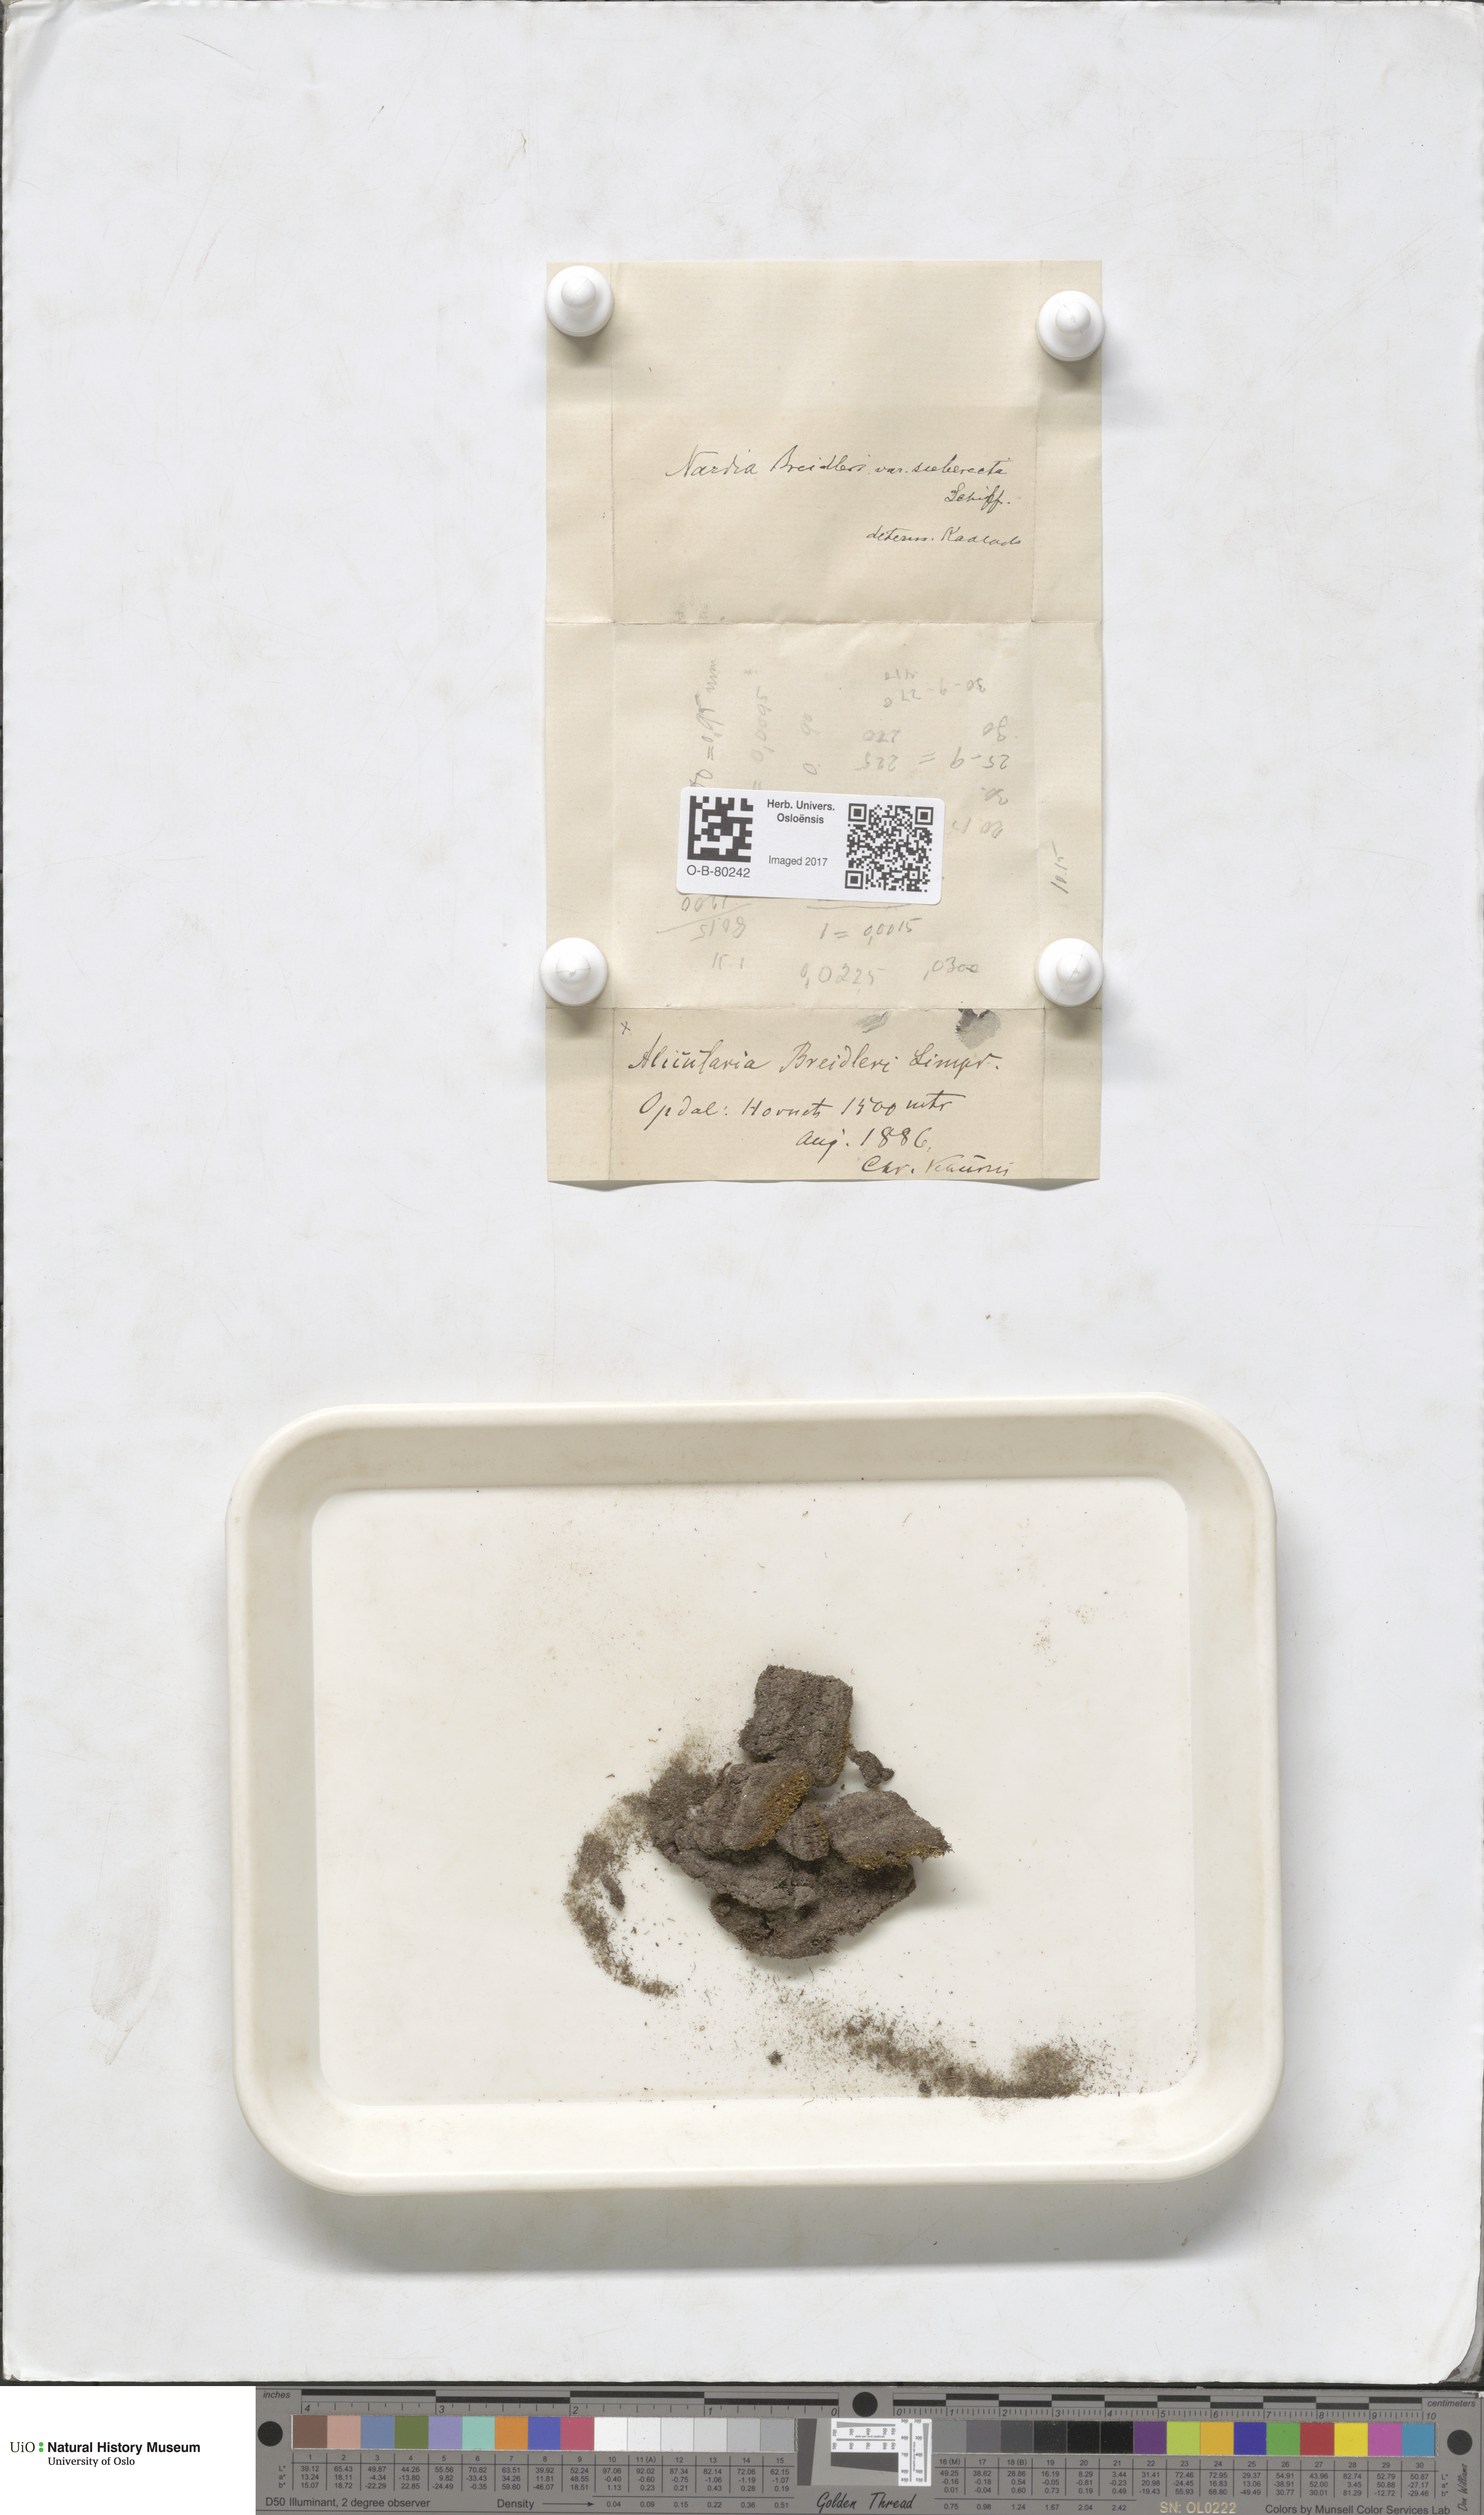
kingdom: Plantae
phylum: Marchantiophyta
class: Jungermanniopsida
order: Jungermanniales
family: Gymnomitriaceae
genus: Nardia
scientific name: Nardia breidleri
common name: Book flapwort
